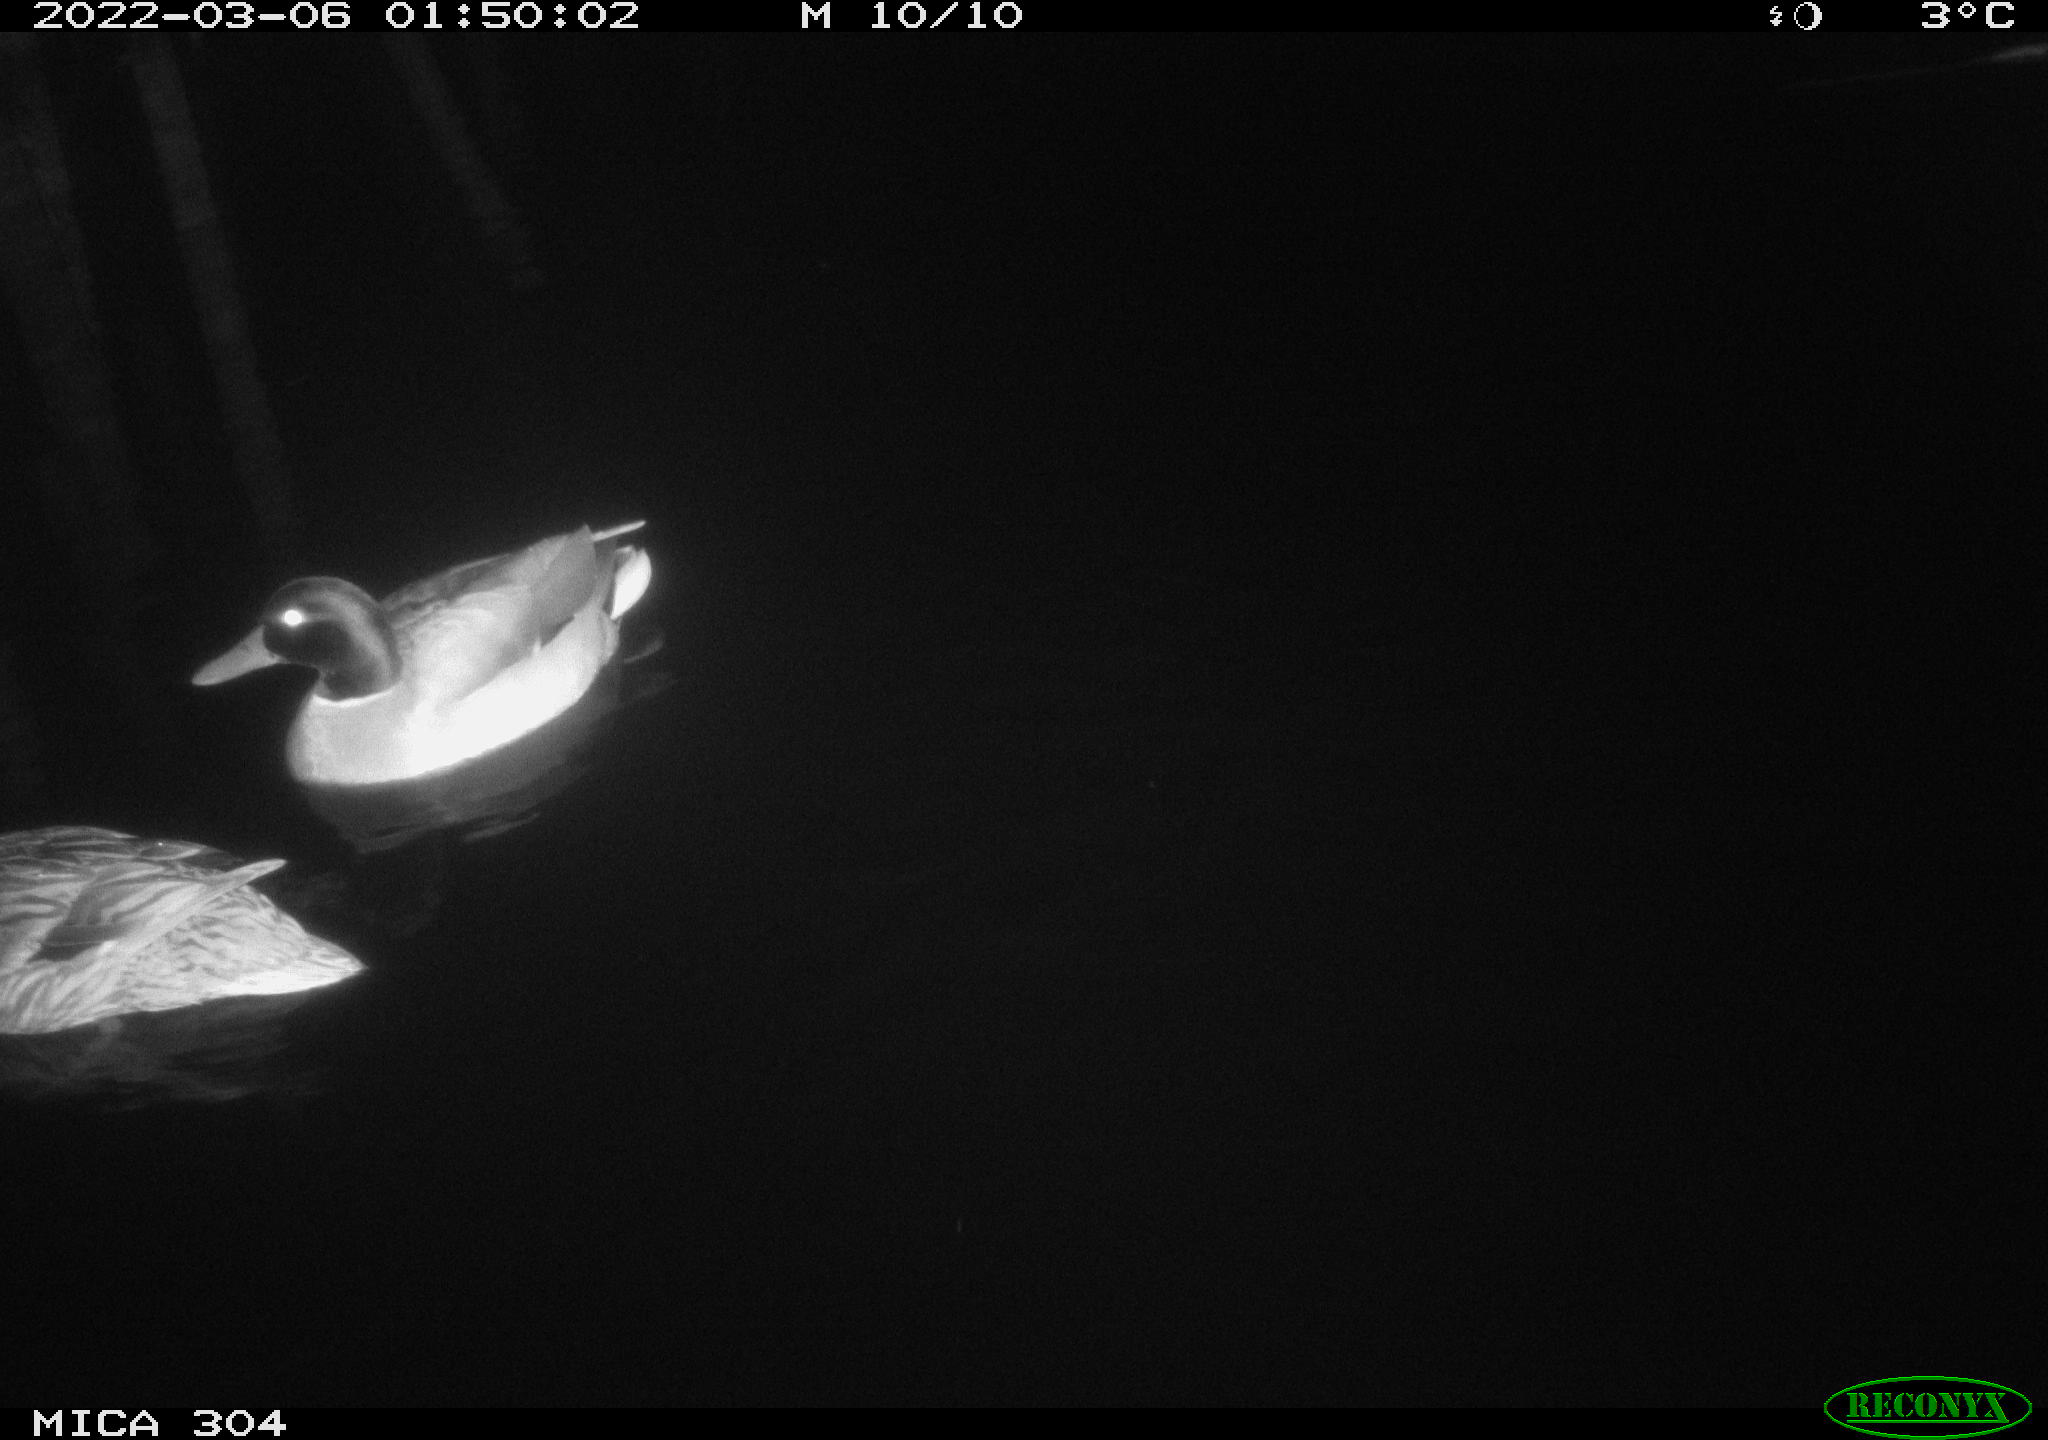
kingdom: Animalia
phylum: Chordata
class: Aves
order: Anseriformes
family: Anatidae
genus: Anas
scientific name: Anas platyrhynchos
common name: Mallard
